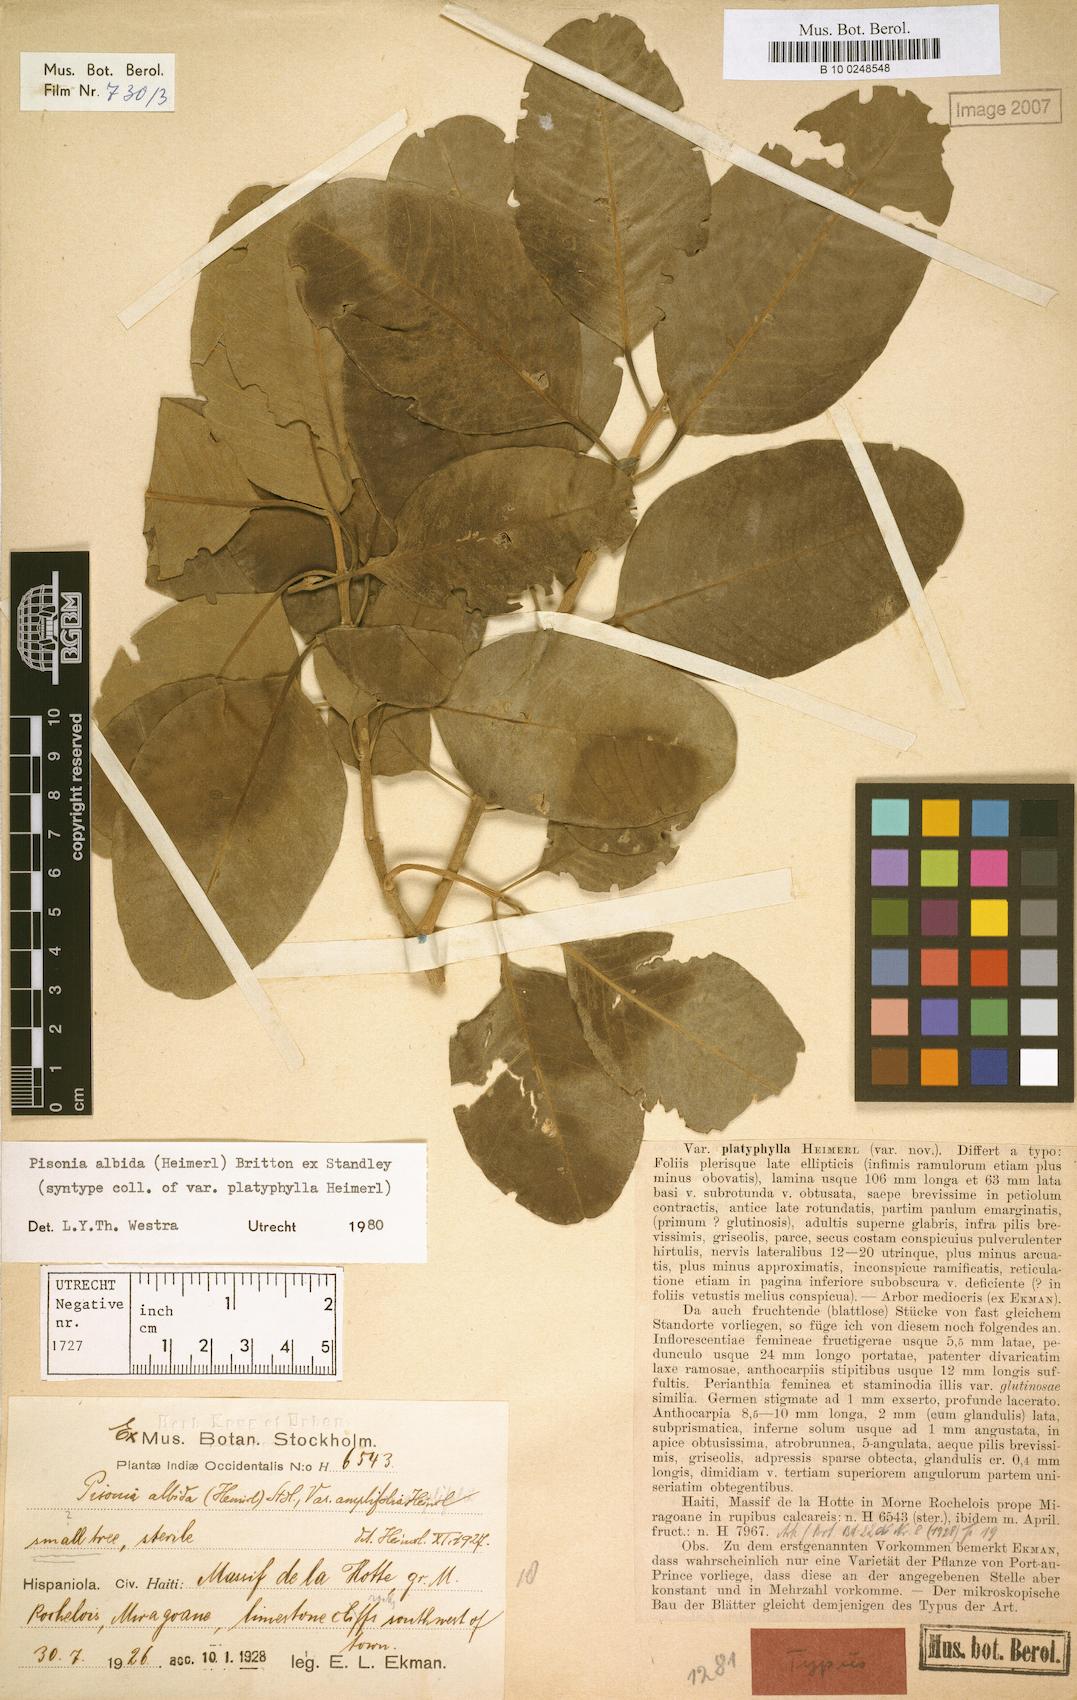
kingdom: Plantae
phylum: Tracheophyta
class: Magnoliopsida
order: Caryophyllales
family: Nyctaginaceae
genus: Pisonia
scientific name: Pisonia albida
